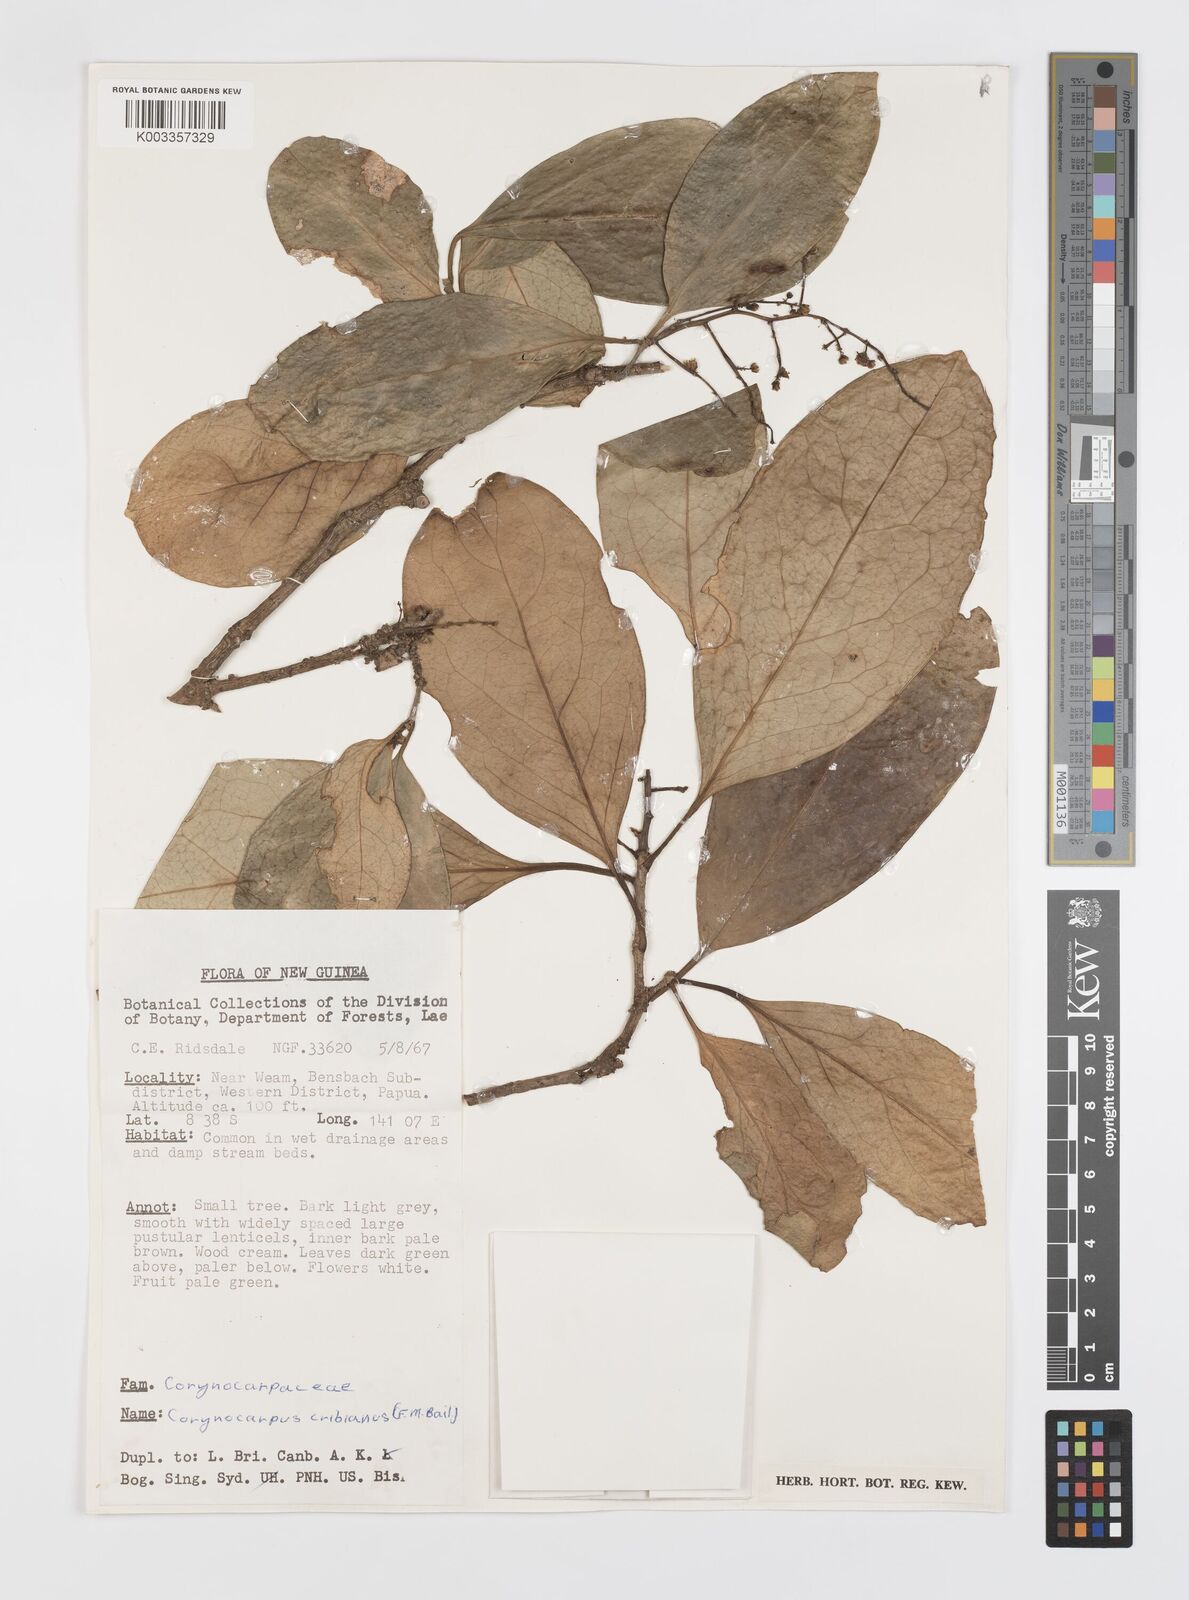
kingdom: Plantae
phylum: Tracheophyta
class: Magnoliopsida
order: Cucurbitales
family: Corynocarpaceae
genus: Corynocarpus
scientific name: Corynocarpus cribbianus
